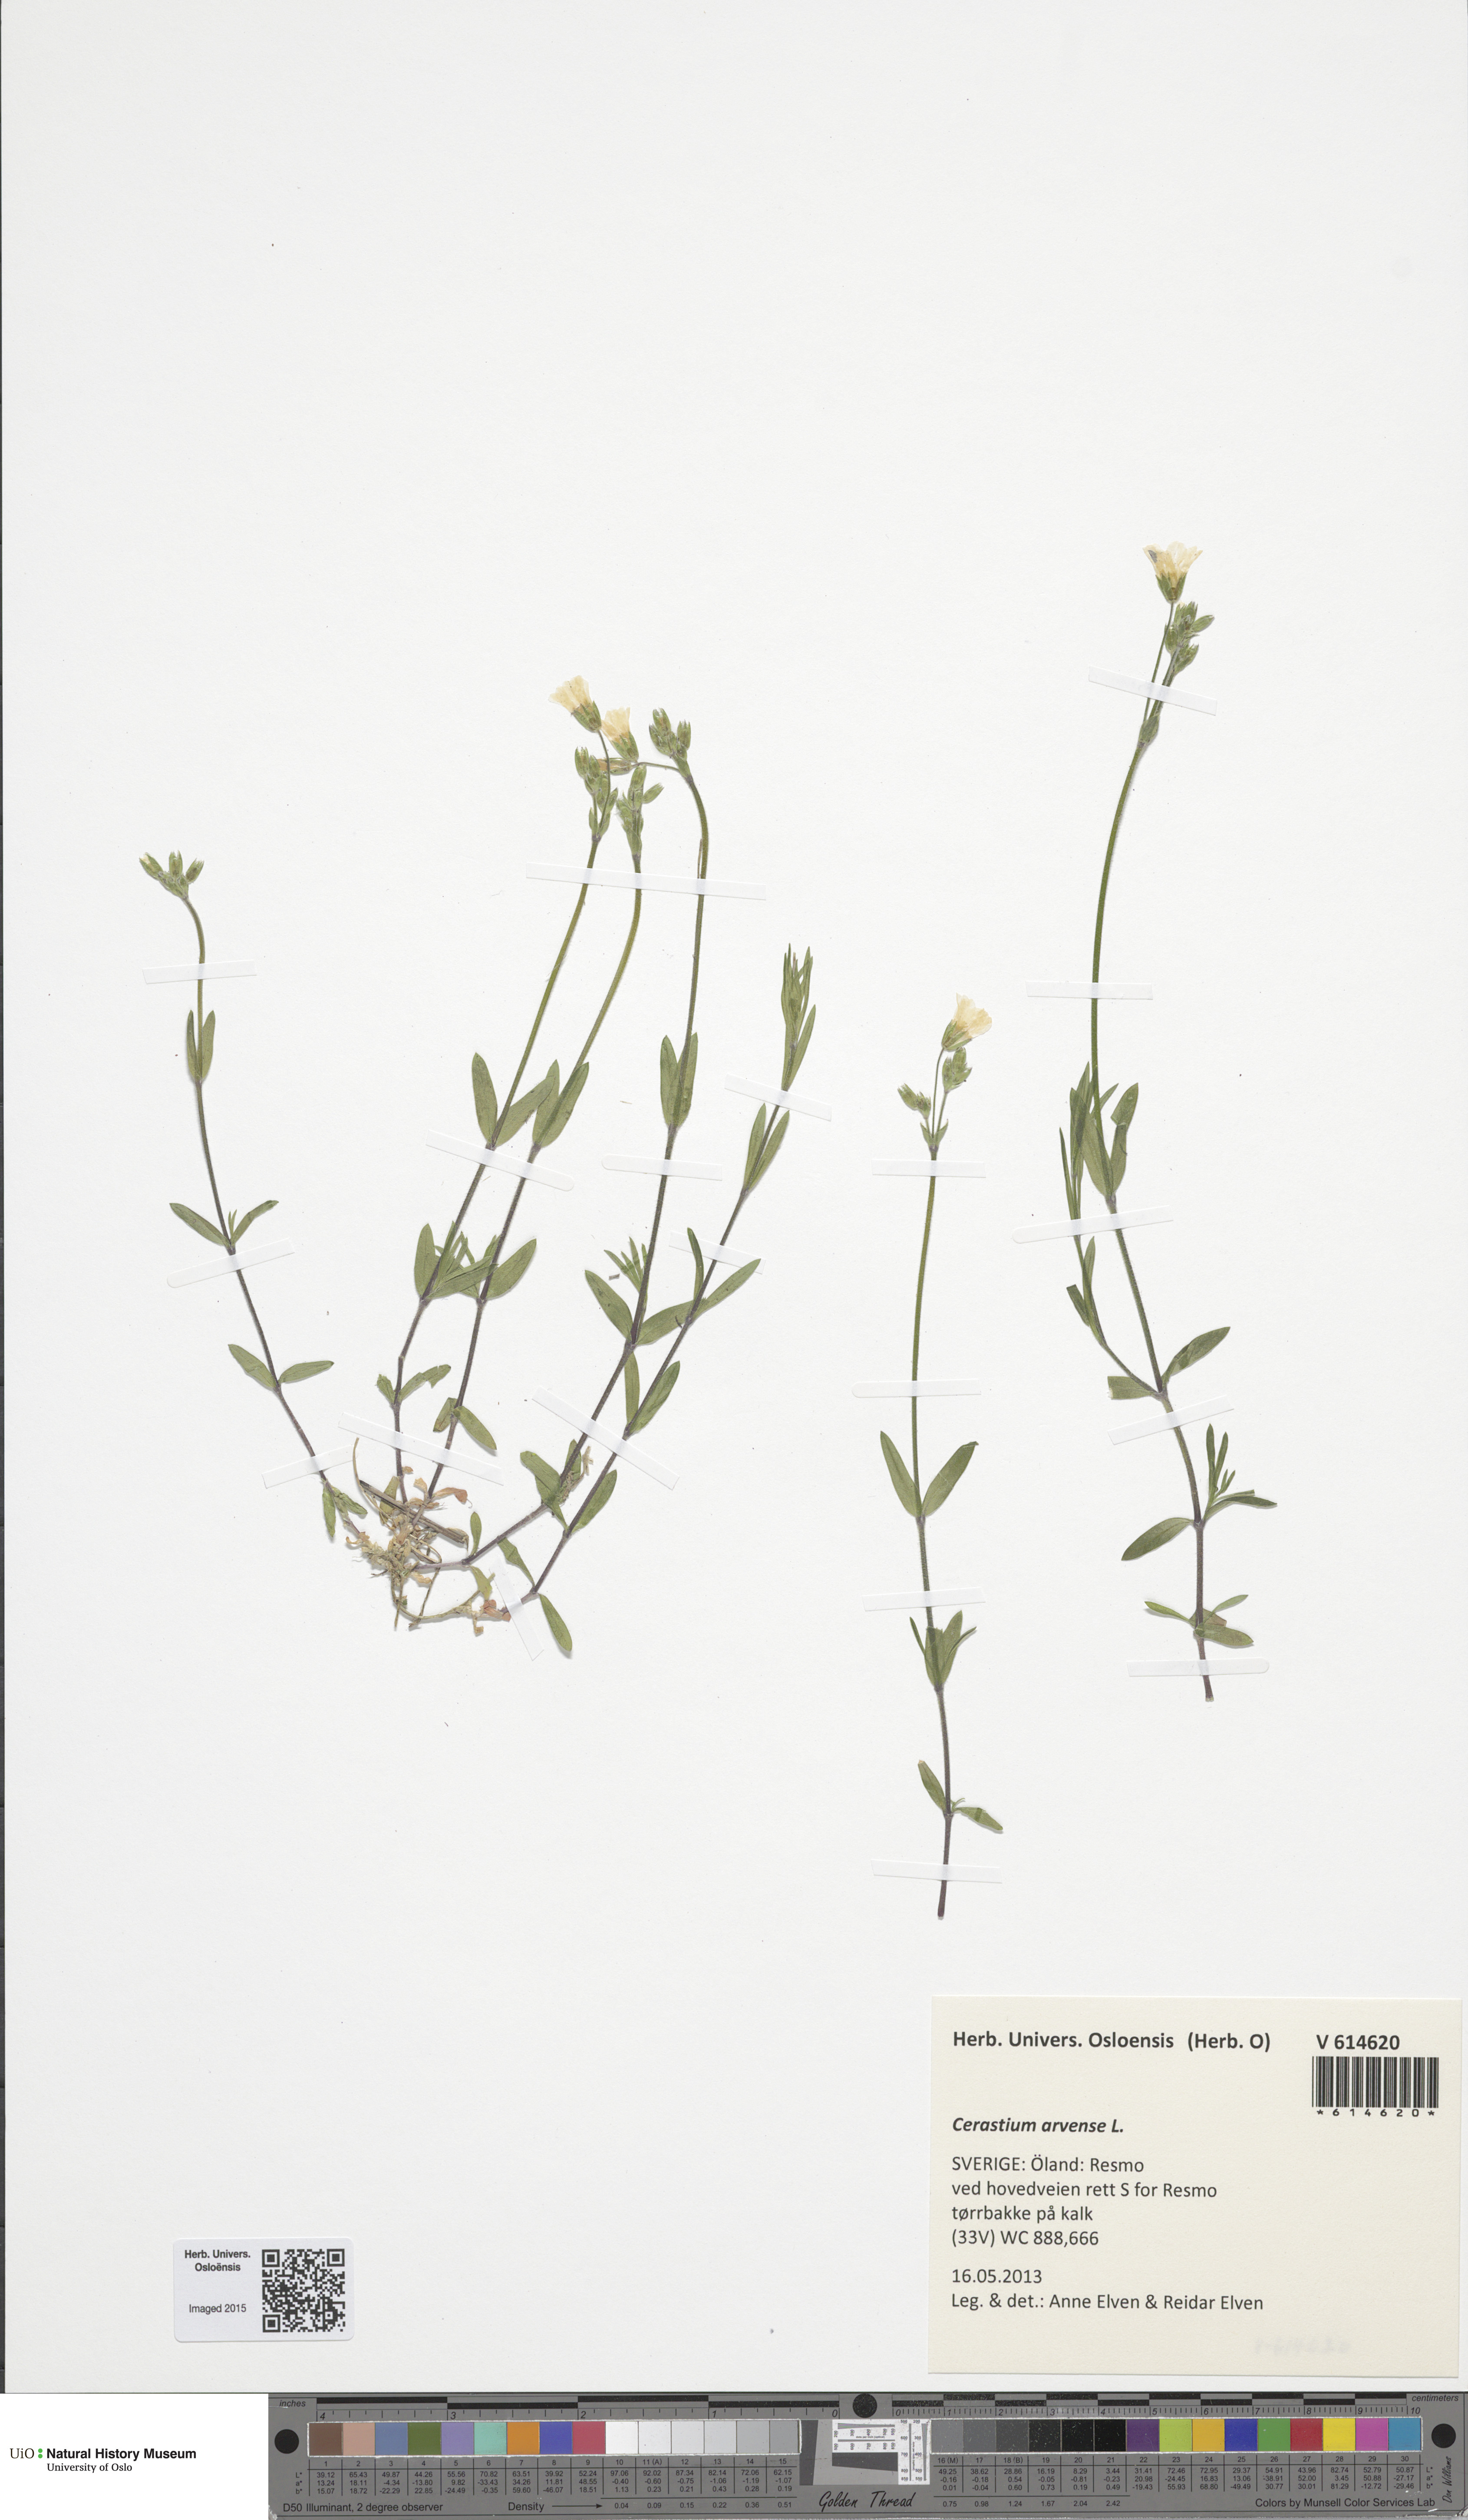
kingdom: Plantae
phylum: Tracheophyta
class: Magnoliopsida
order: Caryophyllales
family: Caryophyllaceae
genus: Cerastium
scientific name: Cerastium arvense
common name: Field mouse-ear
